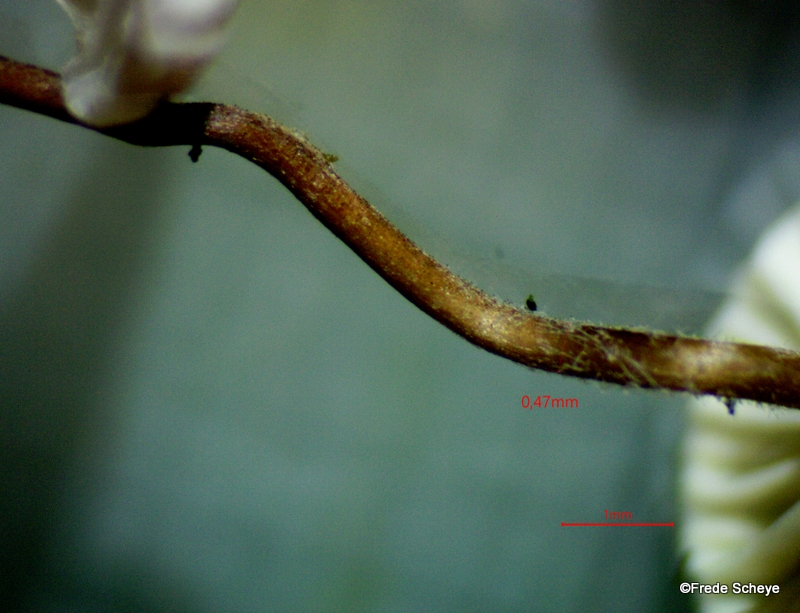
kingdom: Fungi
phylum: Basidiomycota
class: Agaricomycetes
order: Agaricales
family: Omphalotaceae
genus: Collybiopsis
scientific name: Collybiopsis quercophila
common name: egeblads-bruskhat
